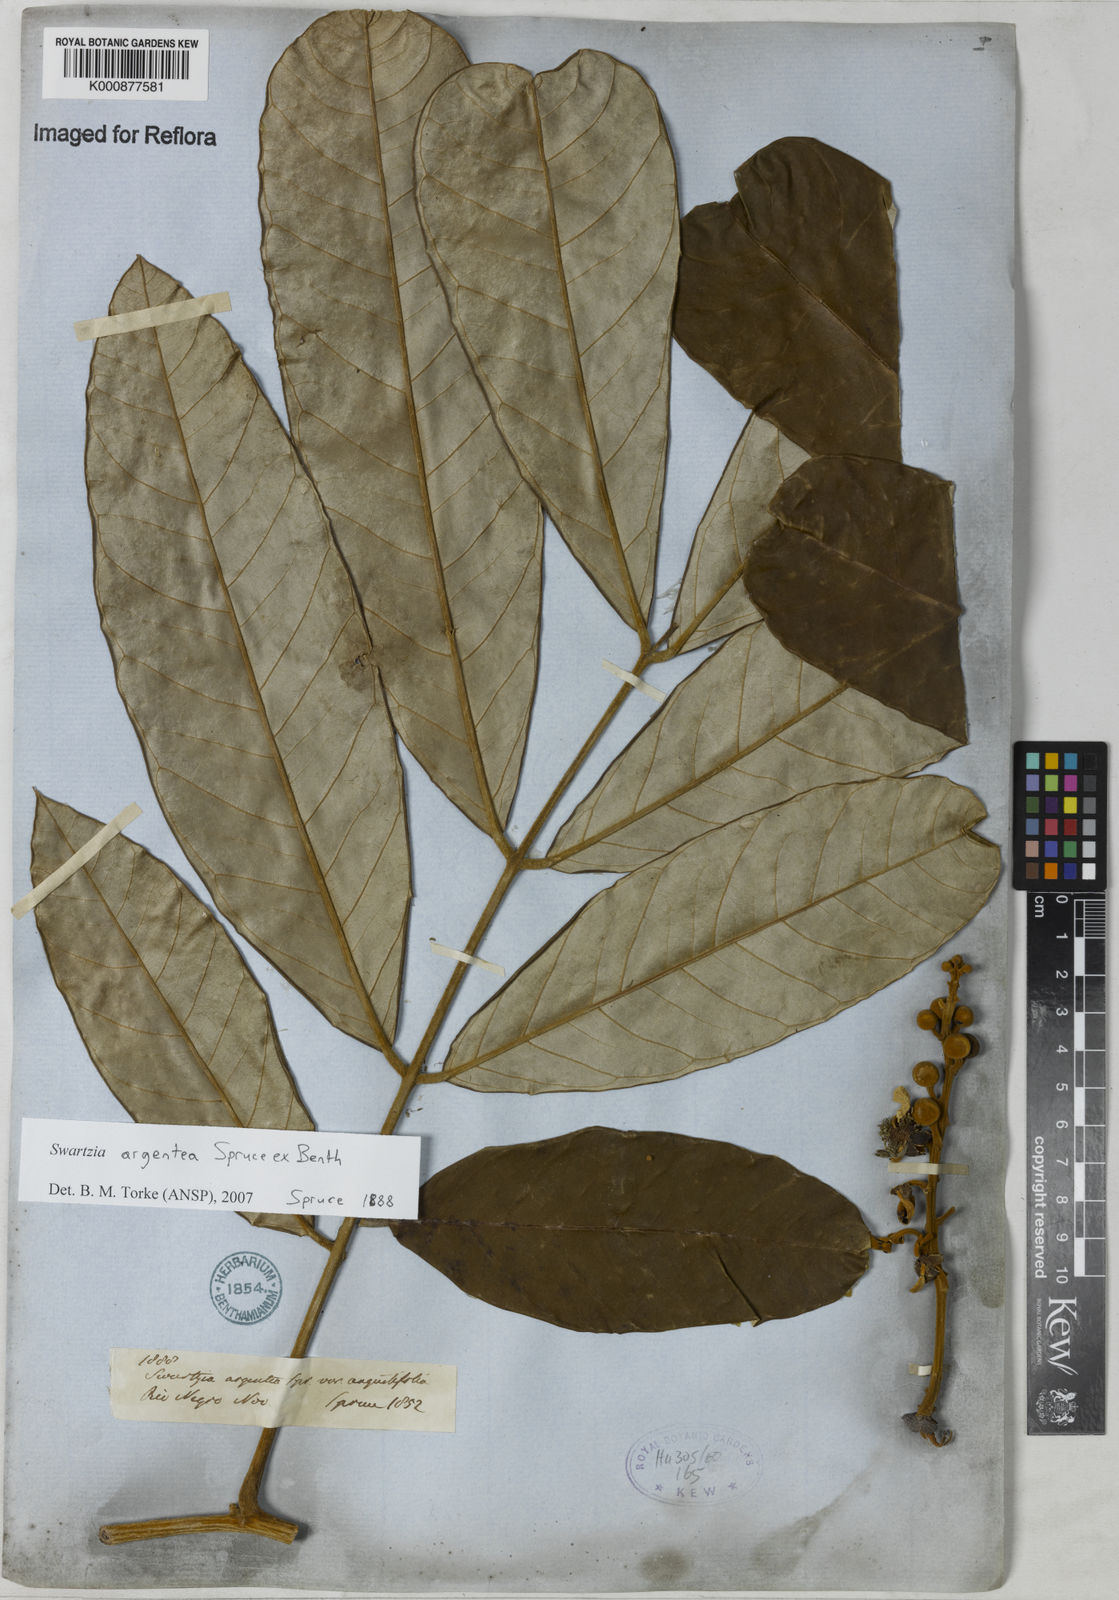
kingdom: Plantae
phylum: Tracheophyta
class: Magnoliopsida
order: Fabales
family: Fabaceae
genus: Swartzia
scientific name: Swartzia argentea
